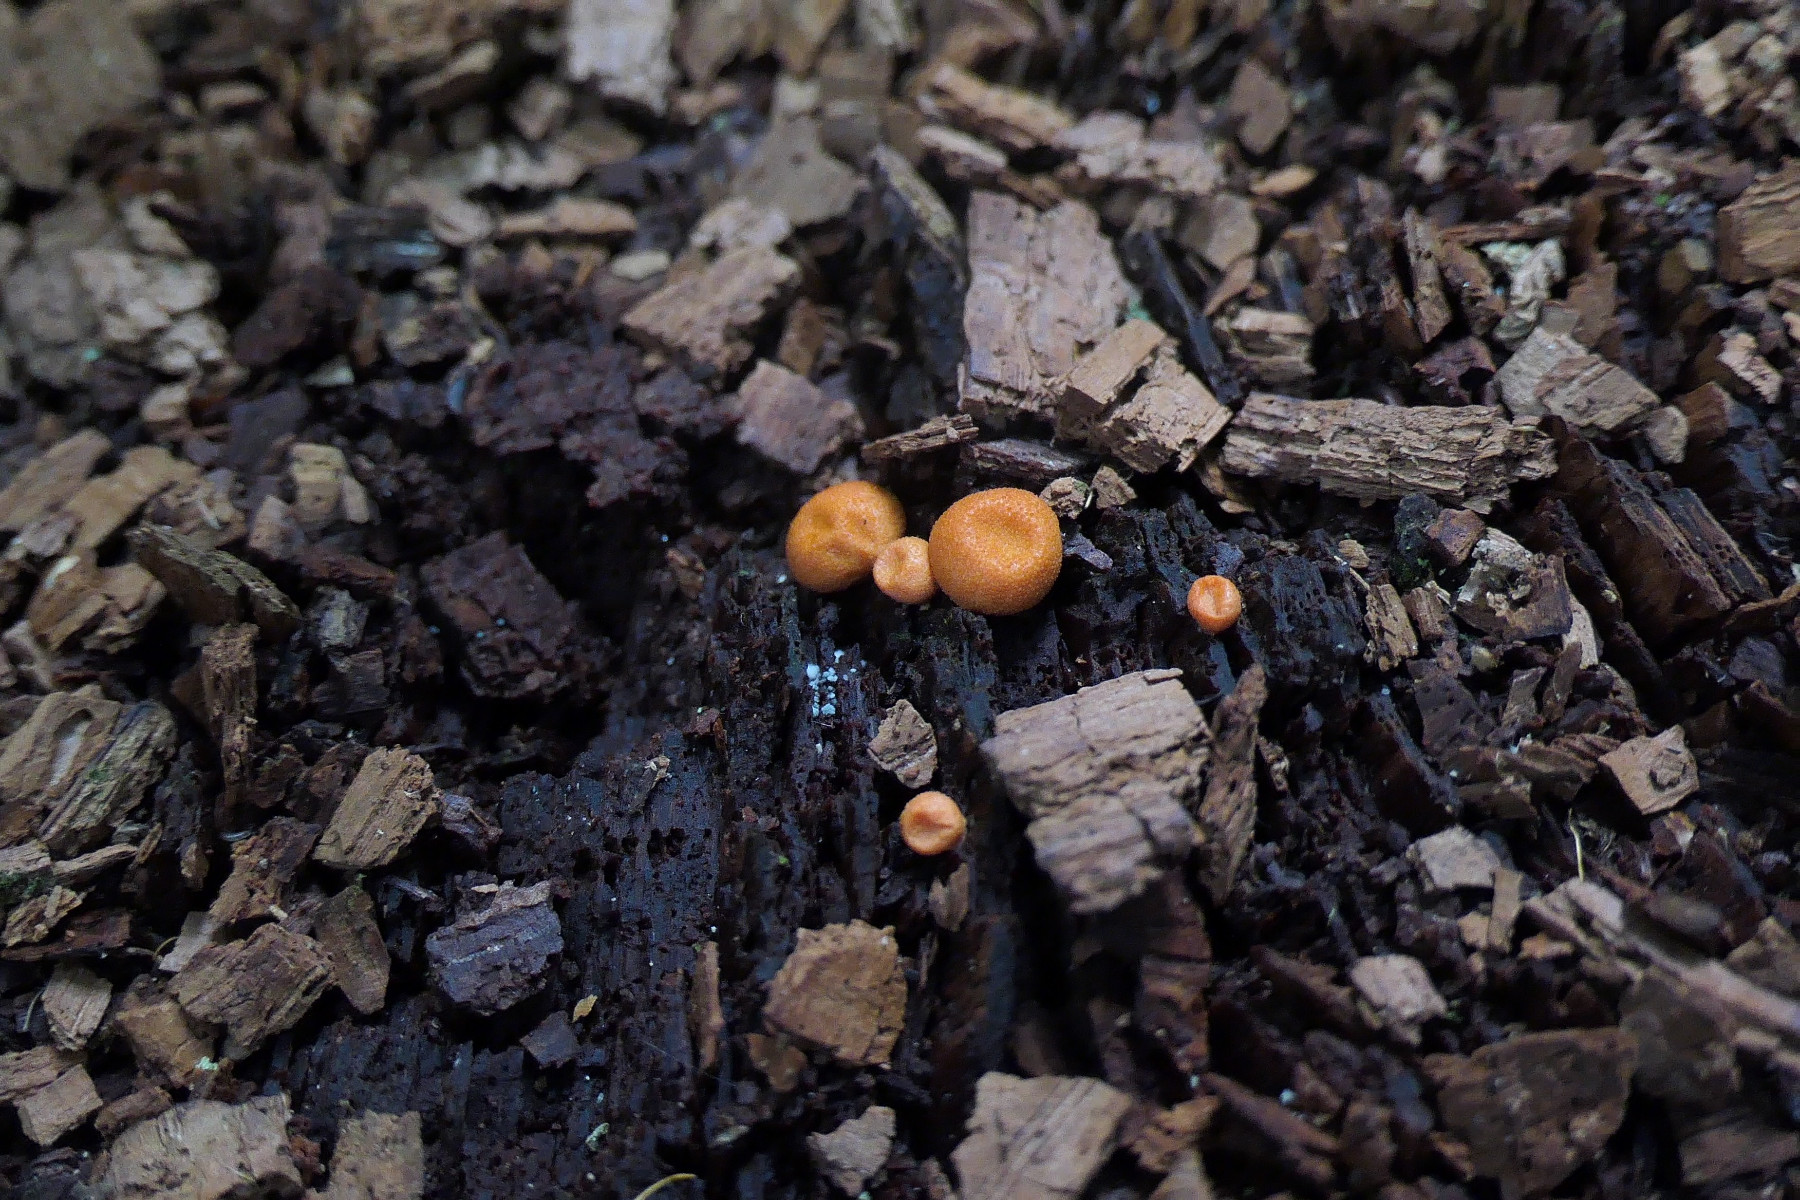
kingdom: Protozoa
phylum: Mycetozoa
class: Myxomycetes
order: Cribrariales
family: Tubiferaceae
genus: Lycogala
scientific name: Lycogala epidendrum
